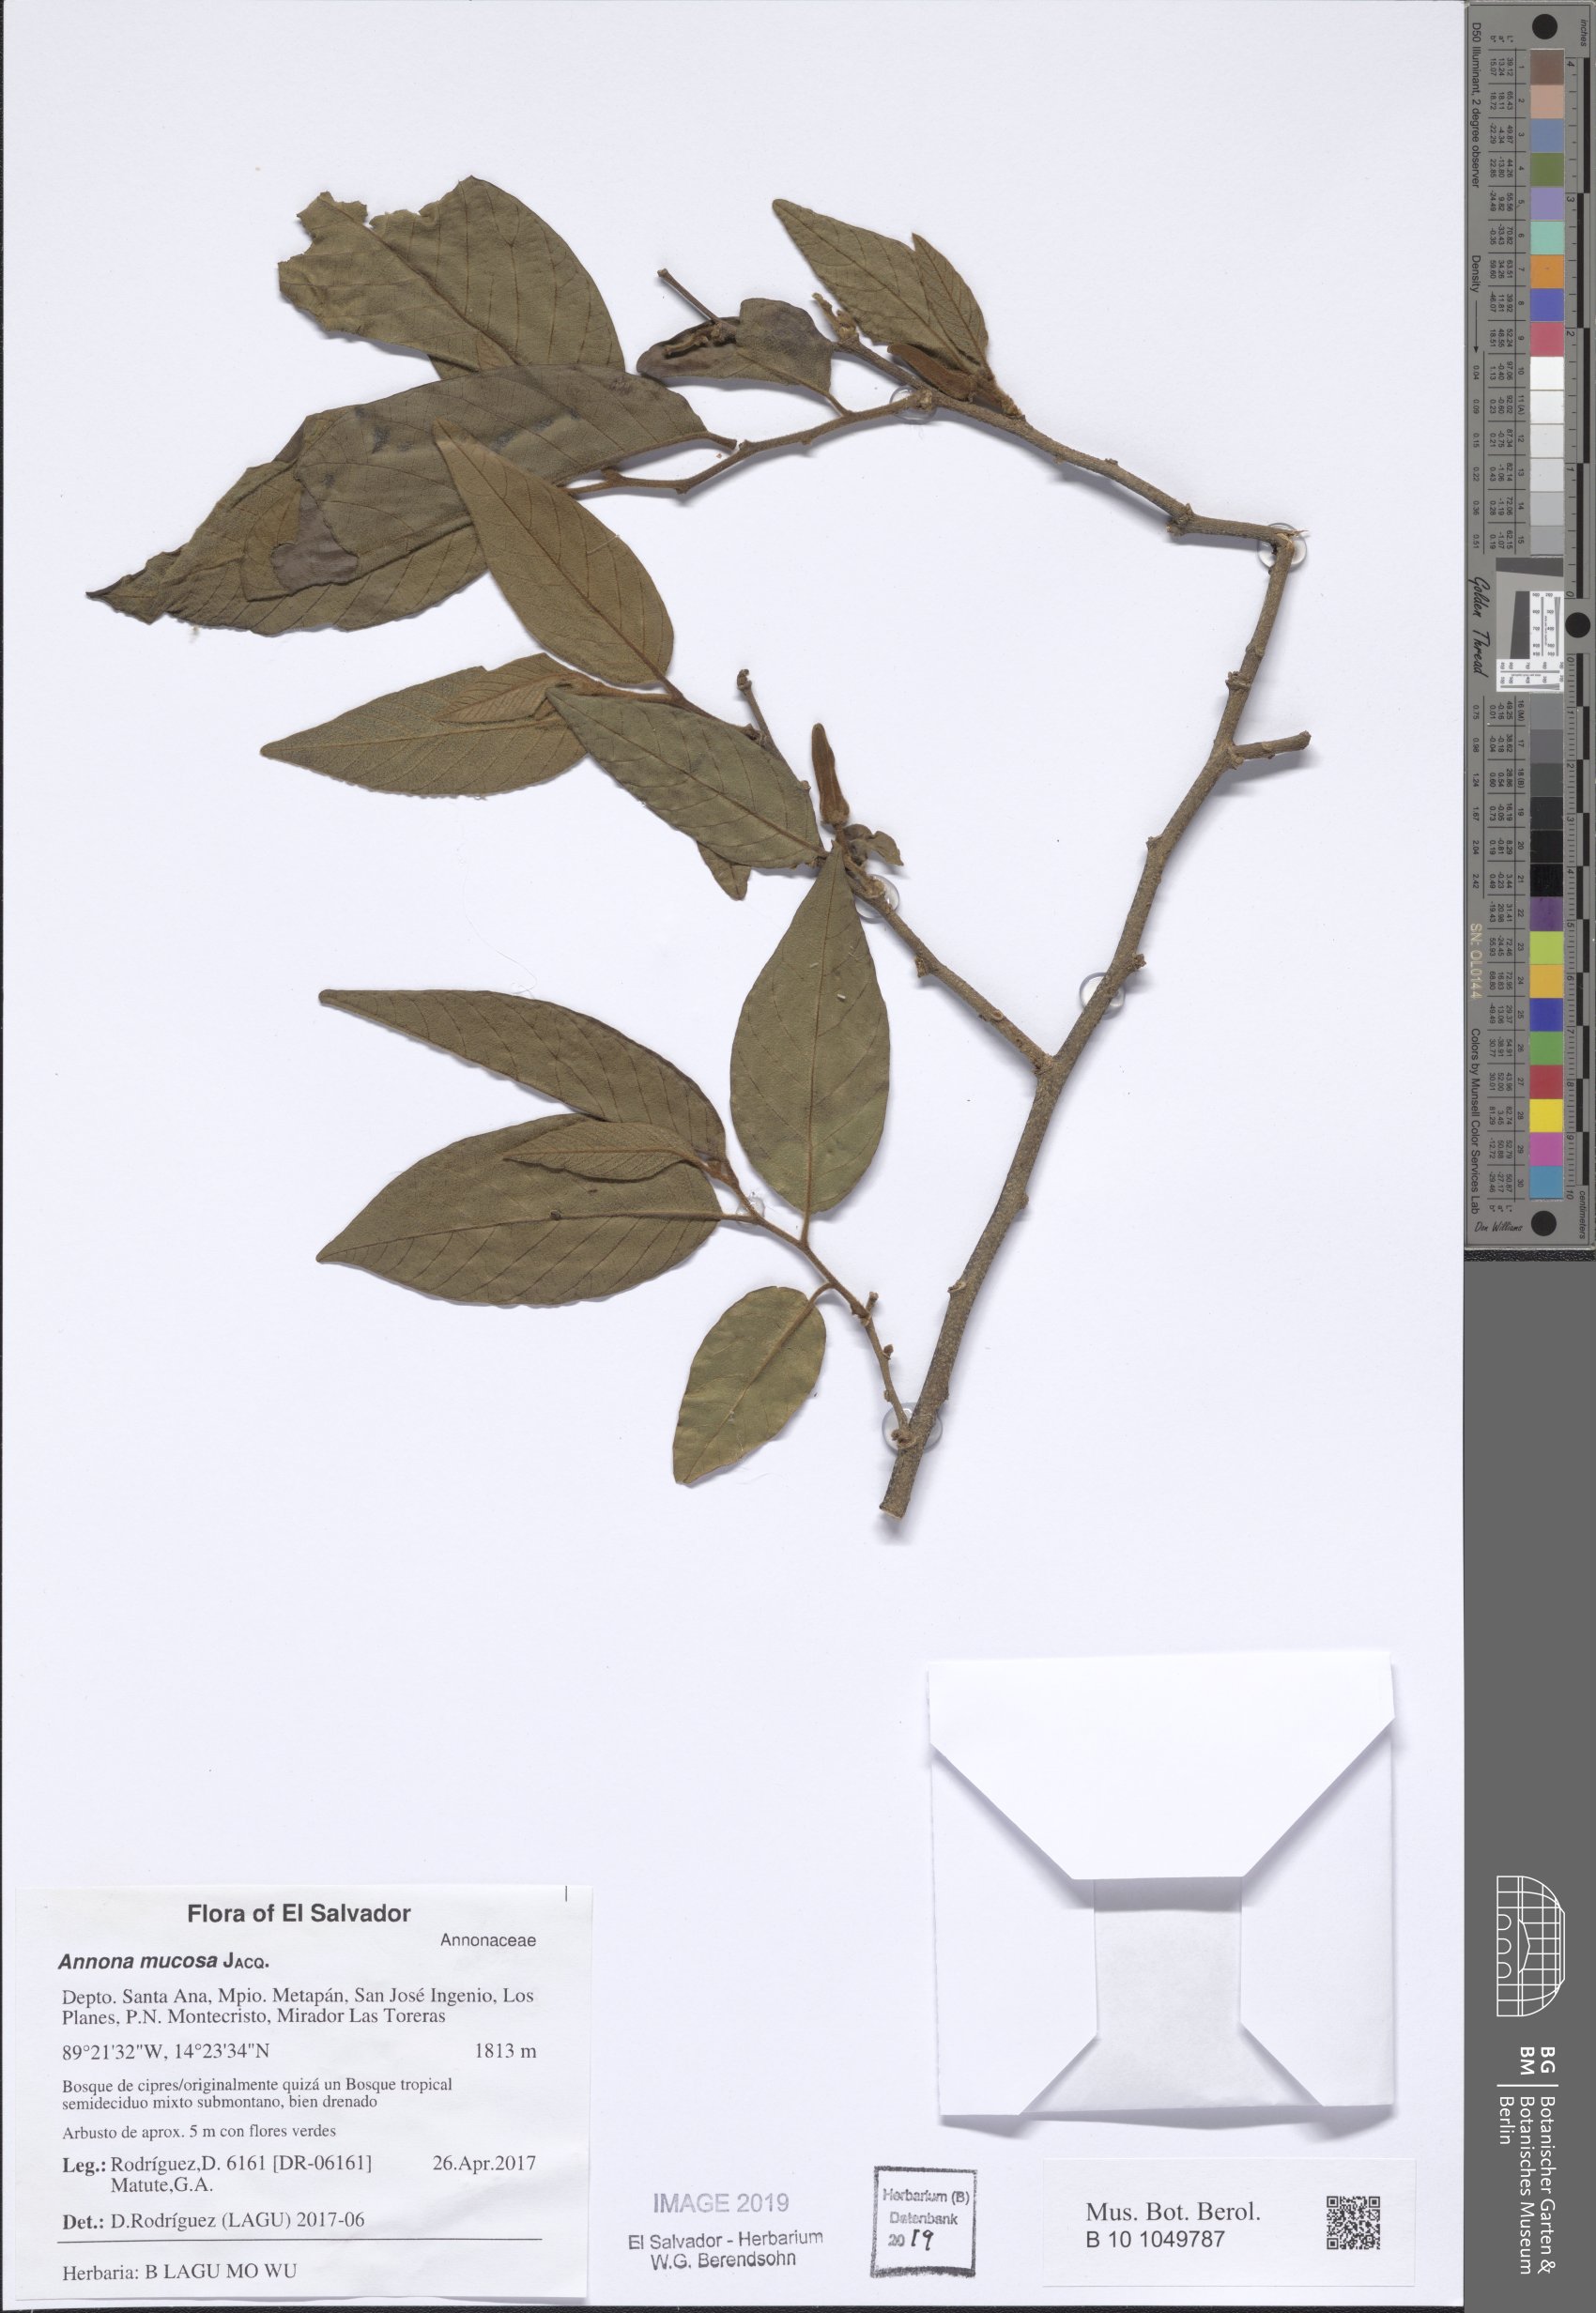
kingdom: Plantae
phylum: Tracheophyta
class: Magnoliopsida
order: Magnoliales
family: Annonaceae
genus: Annona
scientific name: Annona mucosa
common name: Sugar apple
